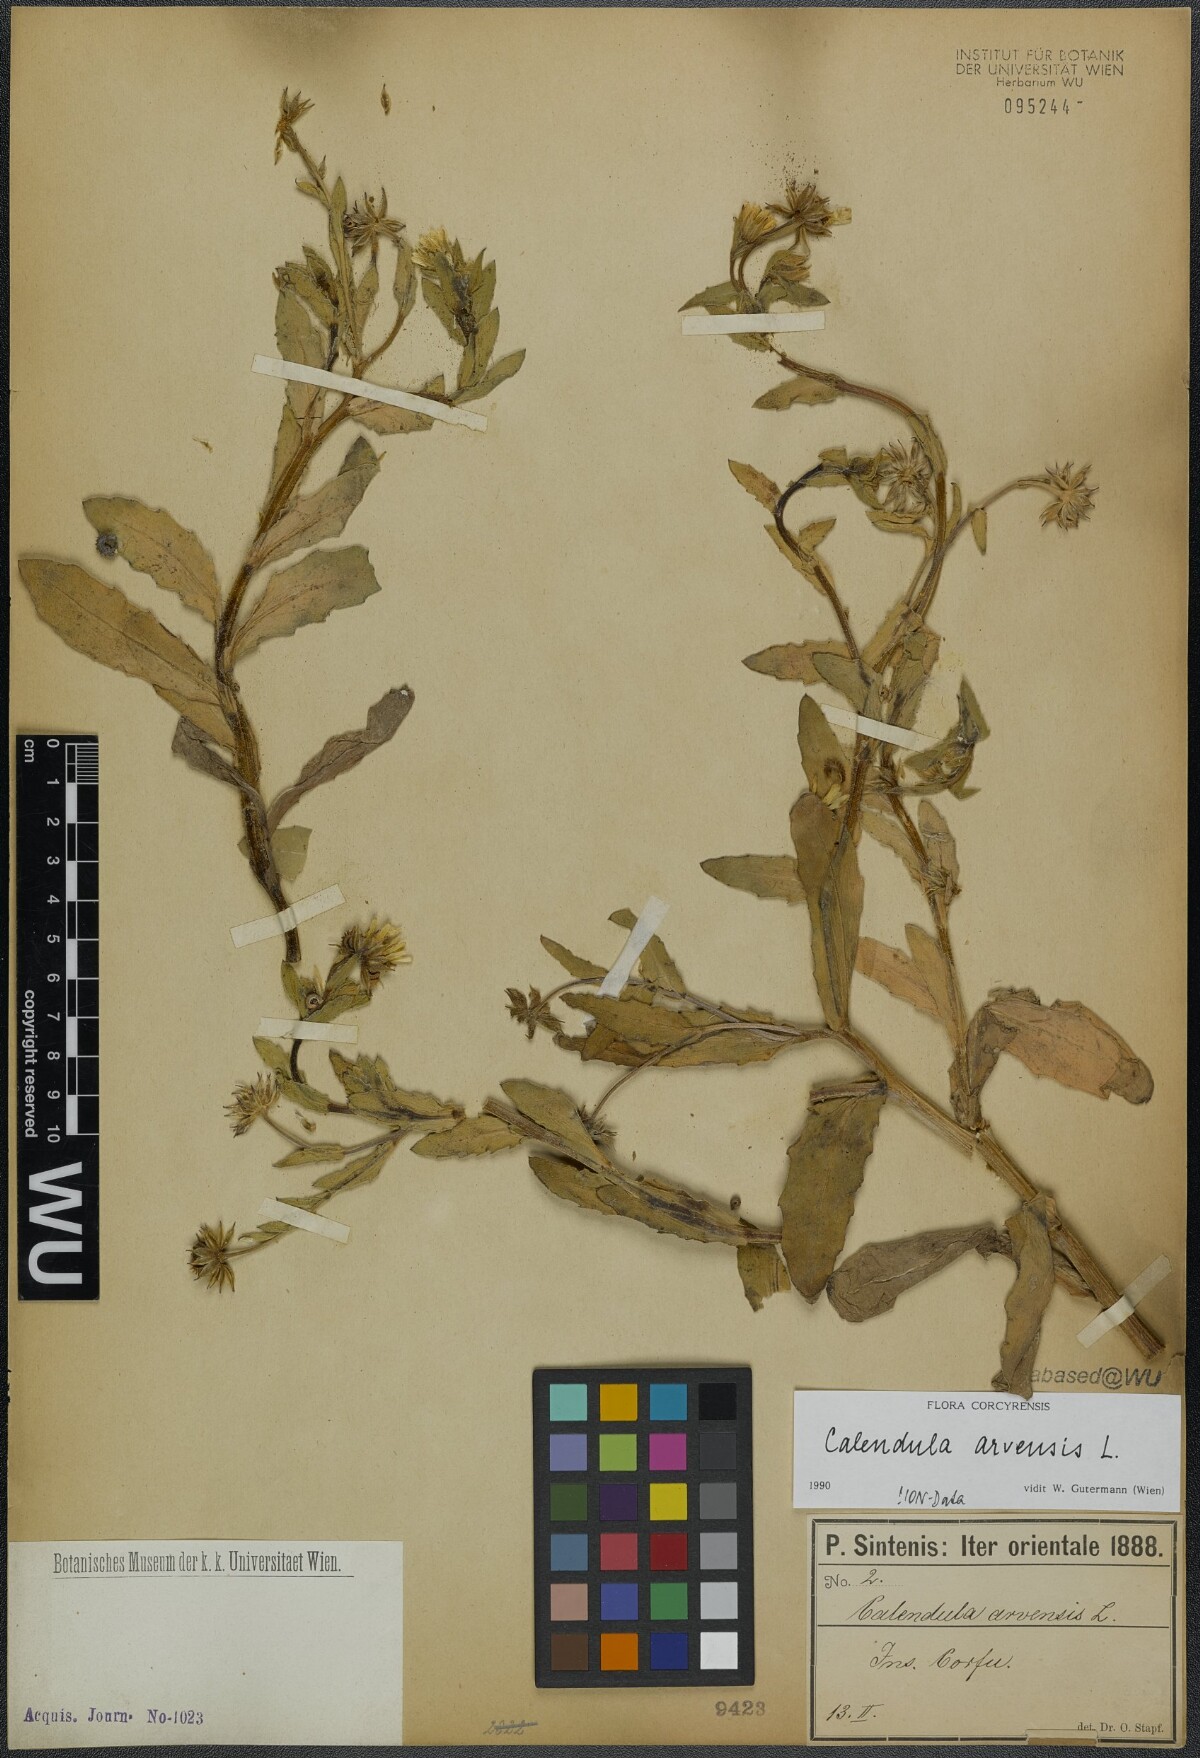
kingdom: Plantae
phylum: Tracheophyta
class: Magnoliopsida
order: Asterales
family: Asteraceae
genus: Calendula
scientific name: Calendula arvensis
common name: Field marigold
